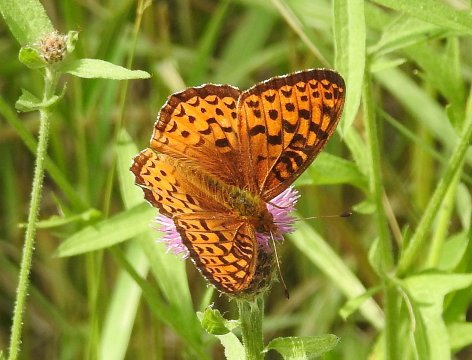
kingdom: Animalia
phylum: Arthropoda
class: Insecta
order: Lepidoptera
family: Nymphalidae
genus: Speyeria
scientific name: Speyeria atlantis
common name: Atlantis Fritillary
